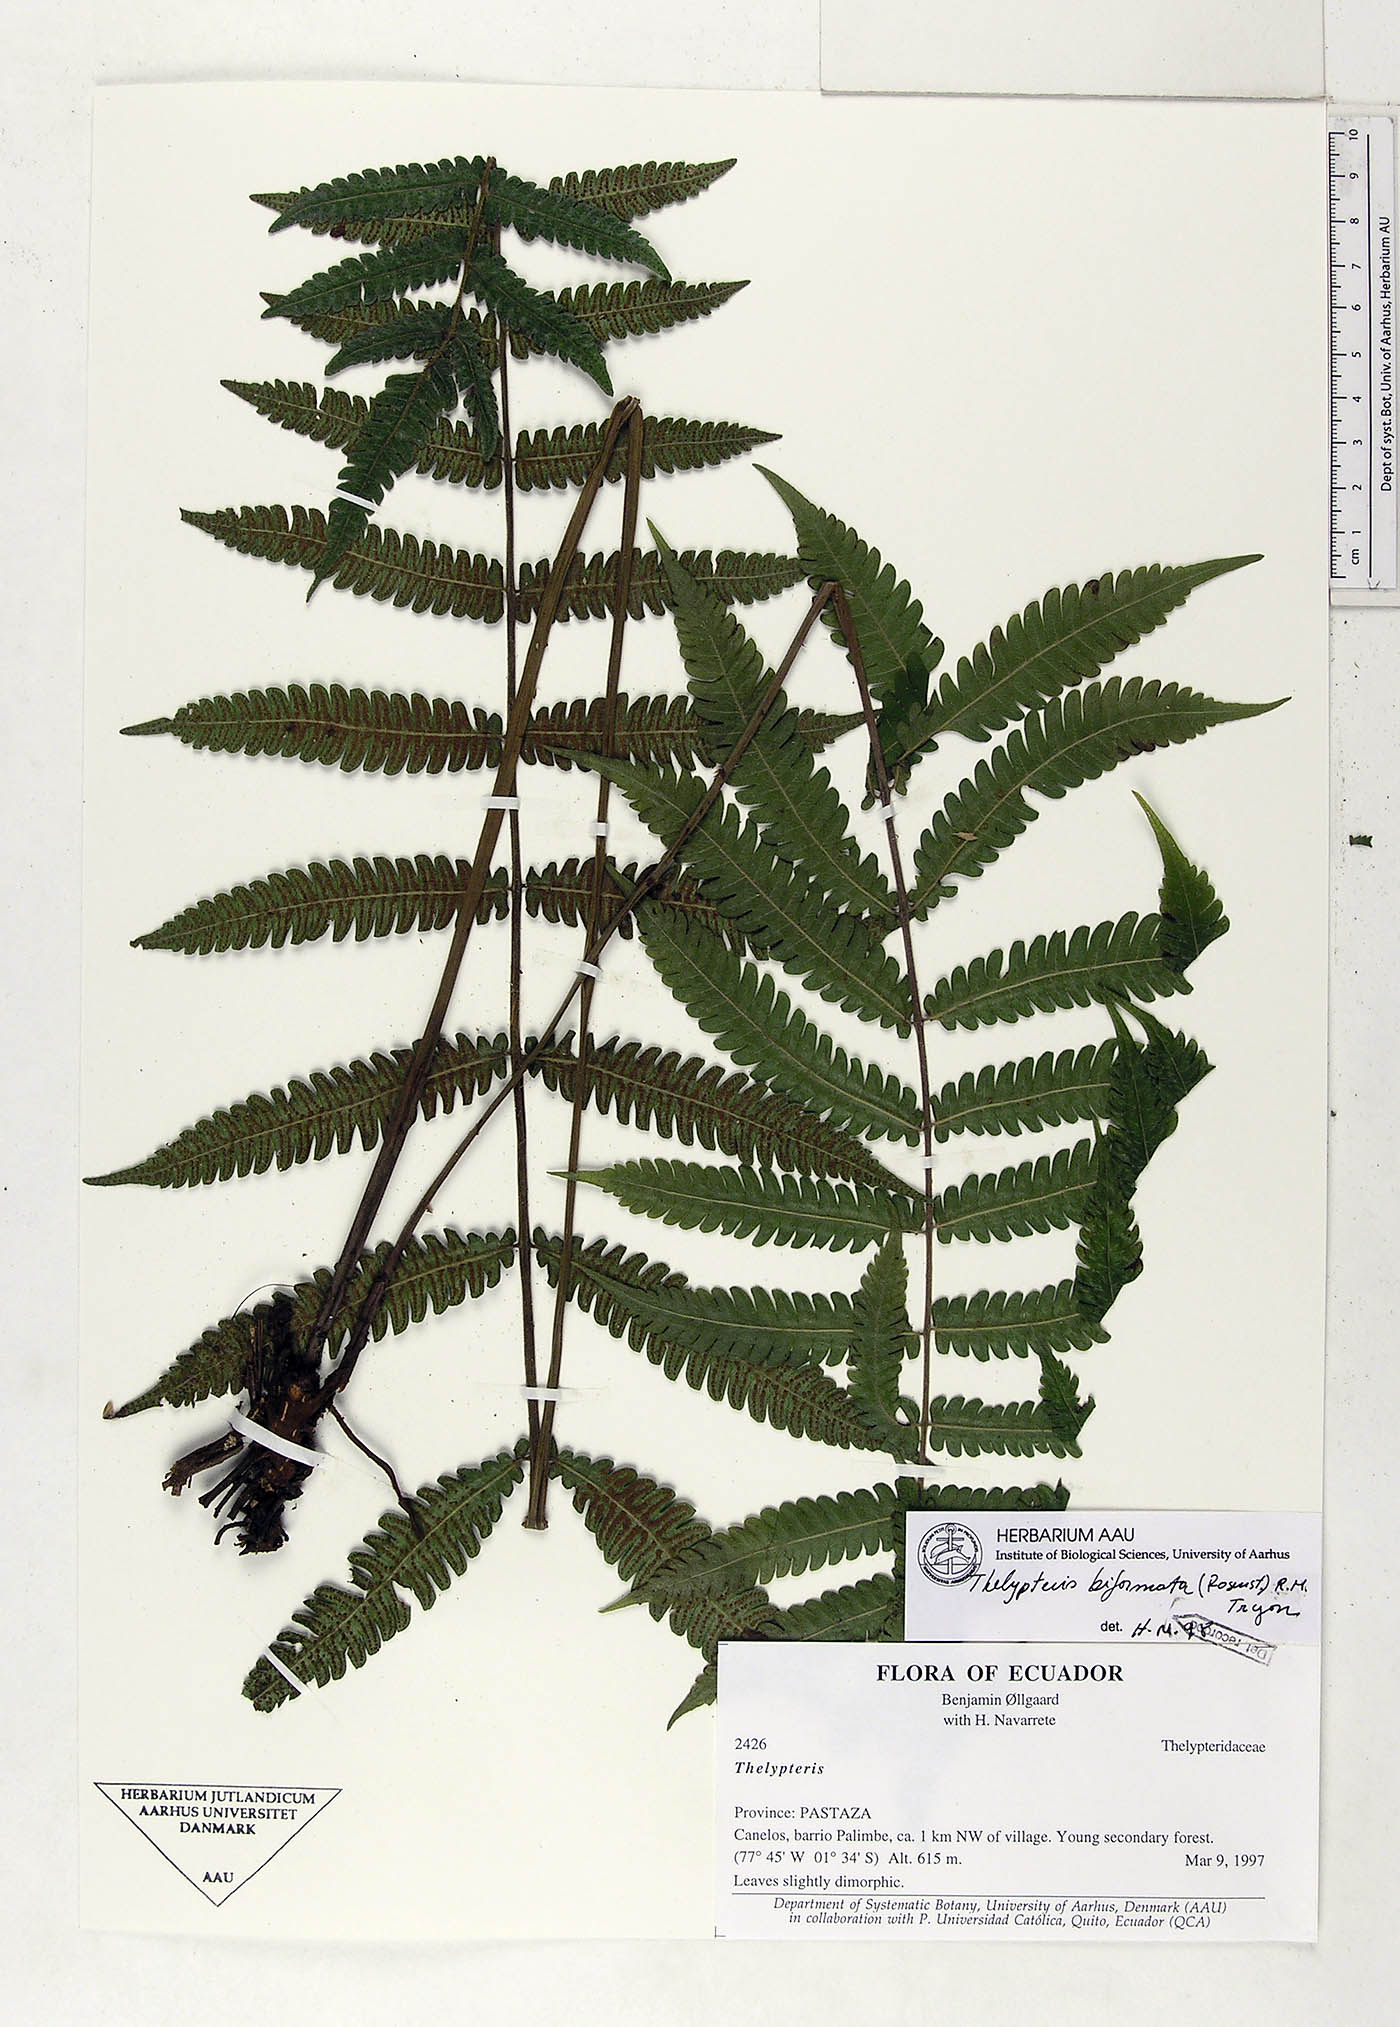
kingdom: Plantae
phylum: Tracheophyta
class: Polypodiopsida
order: Polypodiales
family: Thelypteridaceae
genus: Goniopteris
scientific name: Goniopteris biformata
